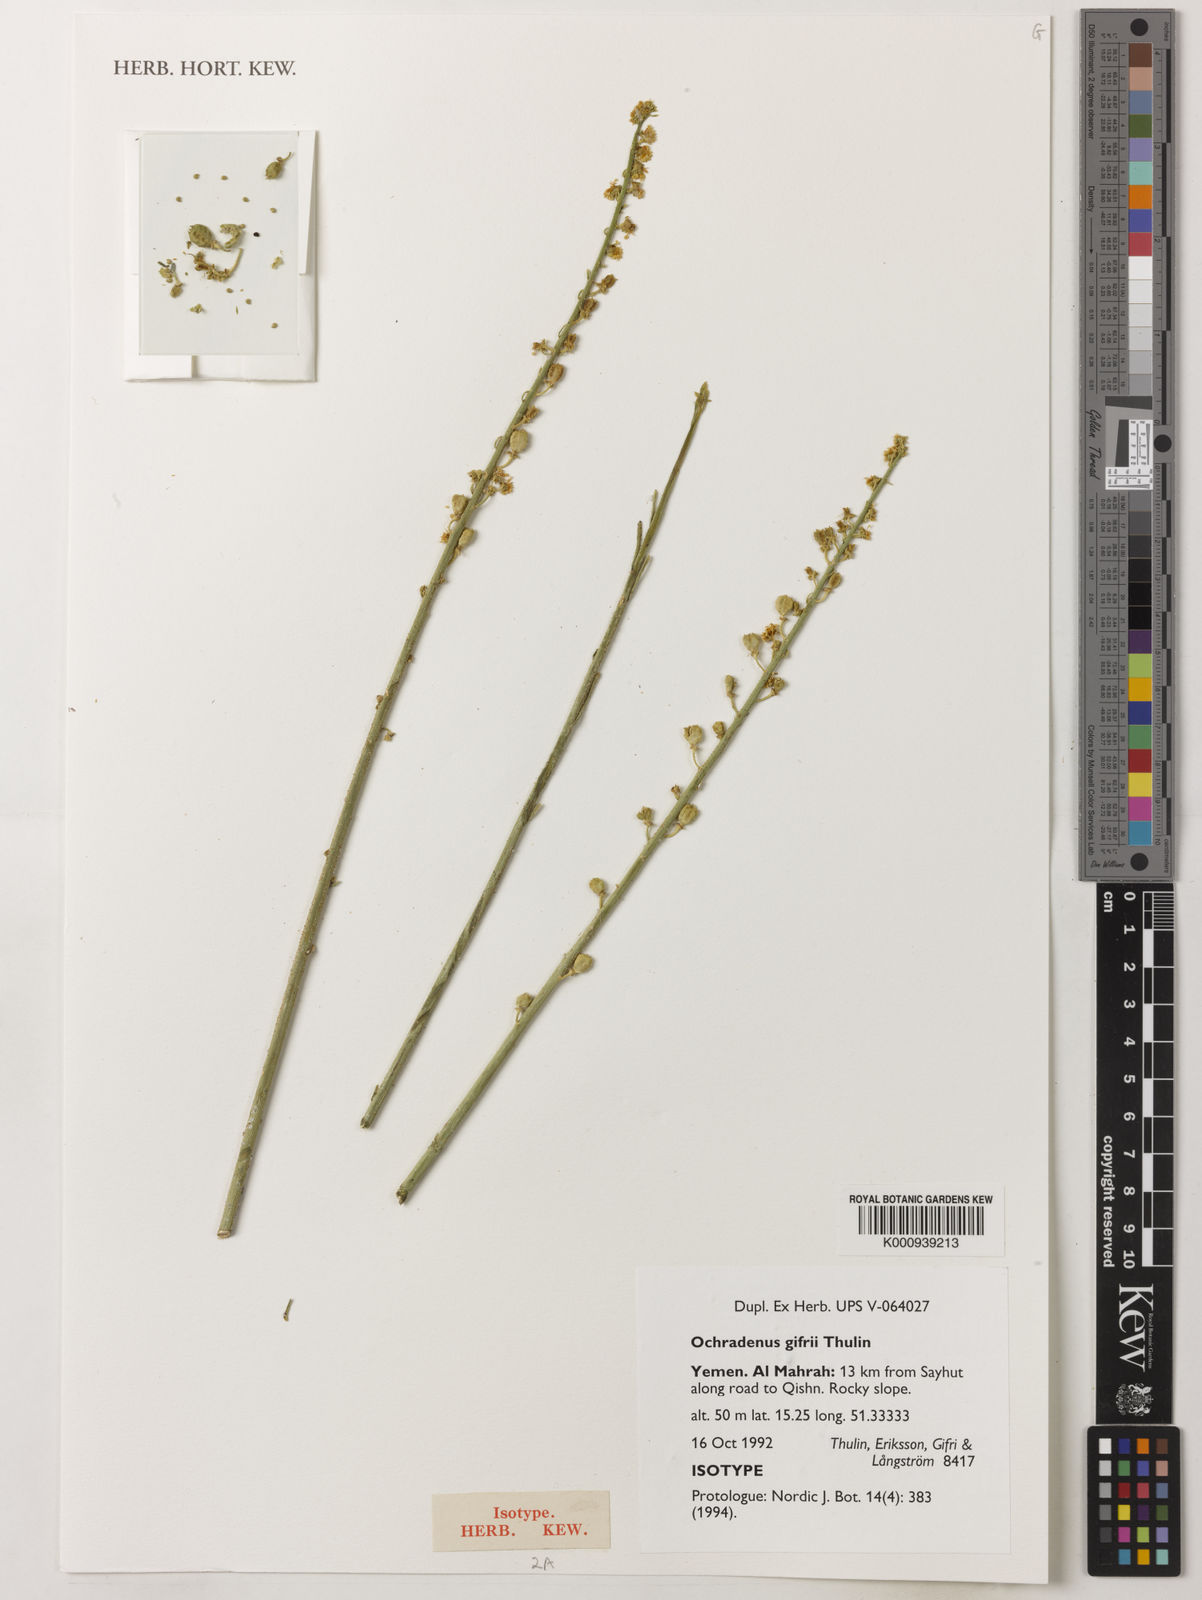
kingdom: Plantae
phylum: Tracheophyta
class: Magnoliopsida
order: Brassicales
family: Resedaceae
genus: Ochradenus
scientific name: Ochradenus gifrii
